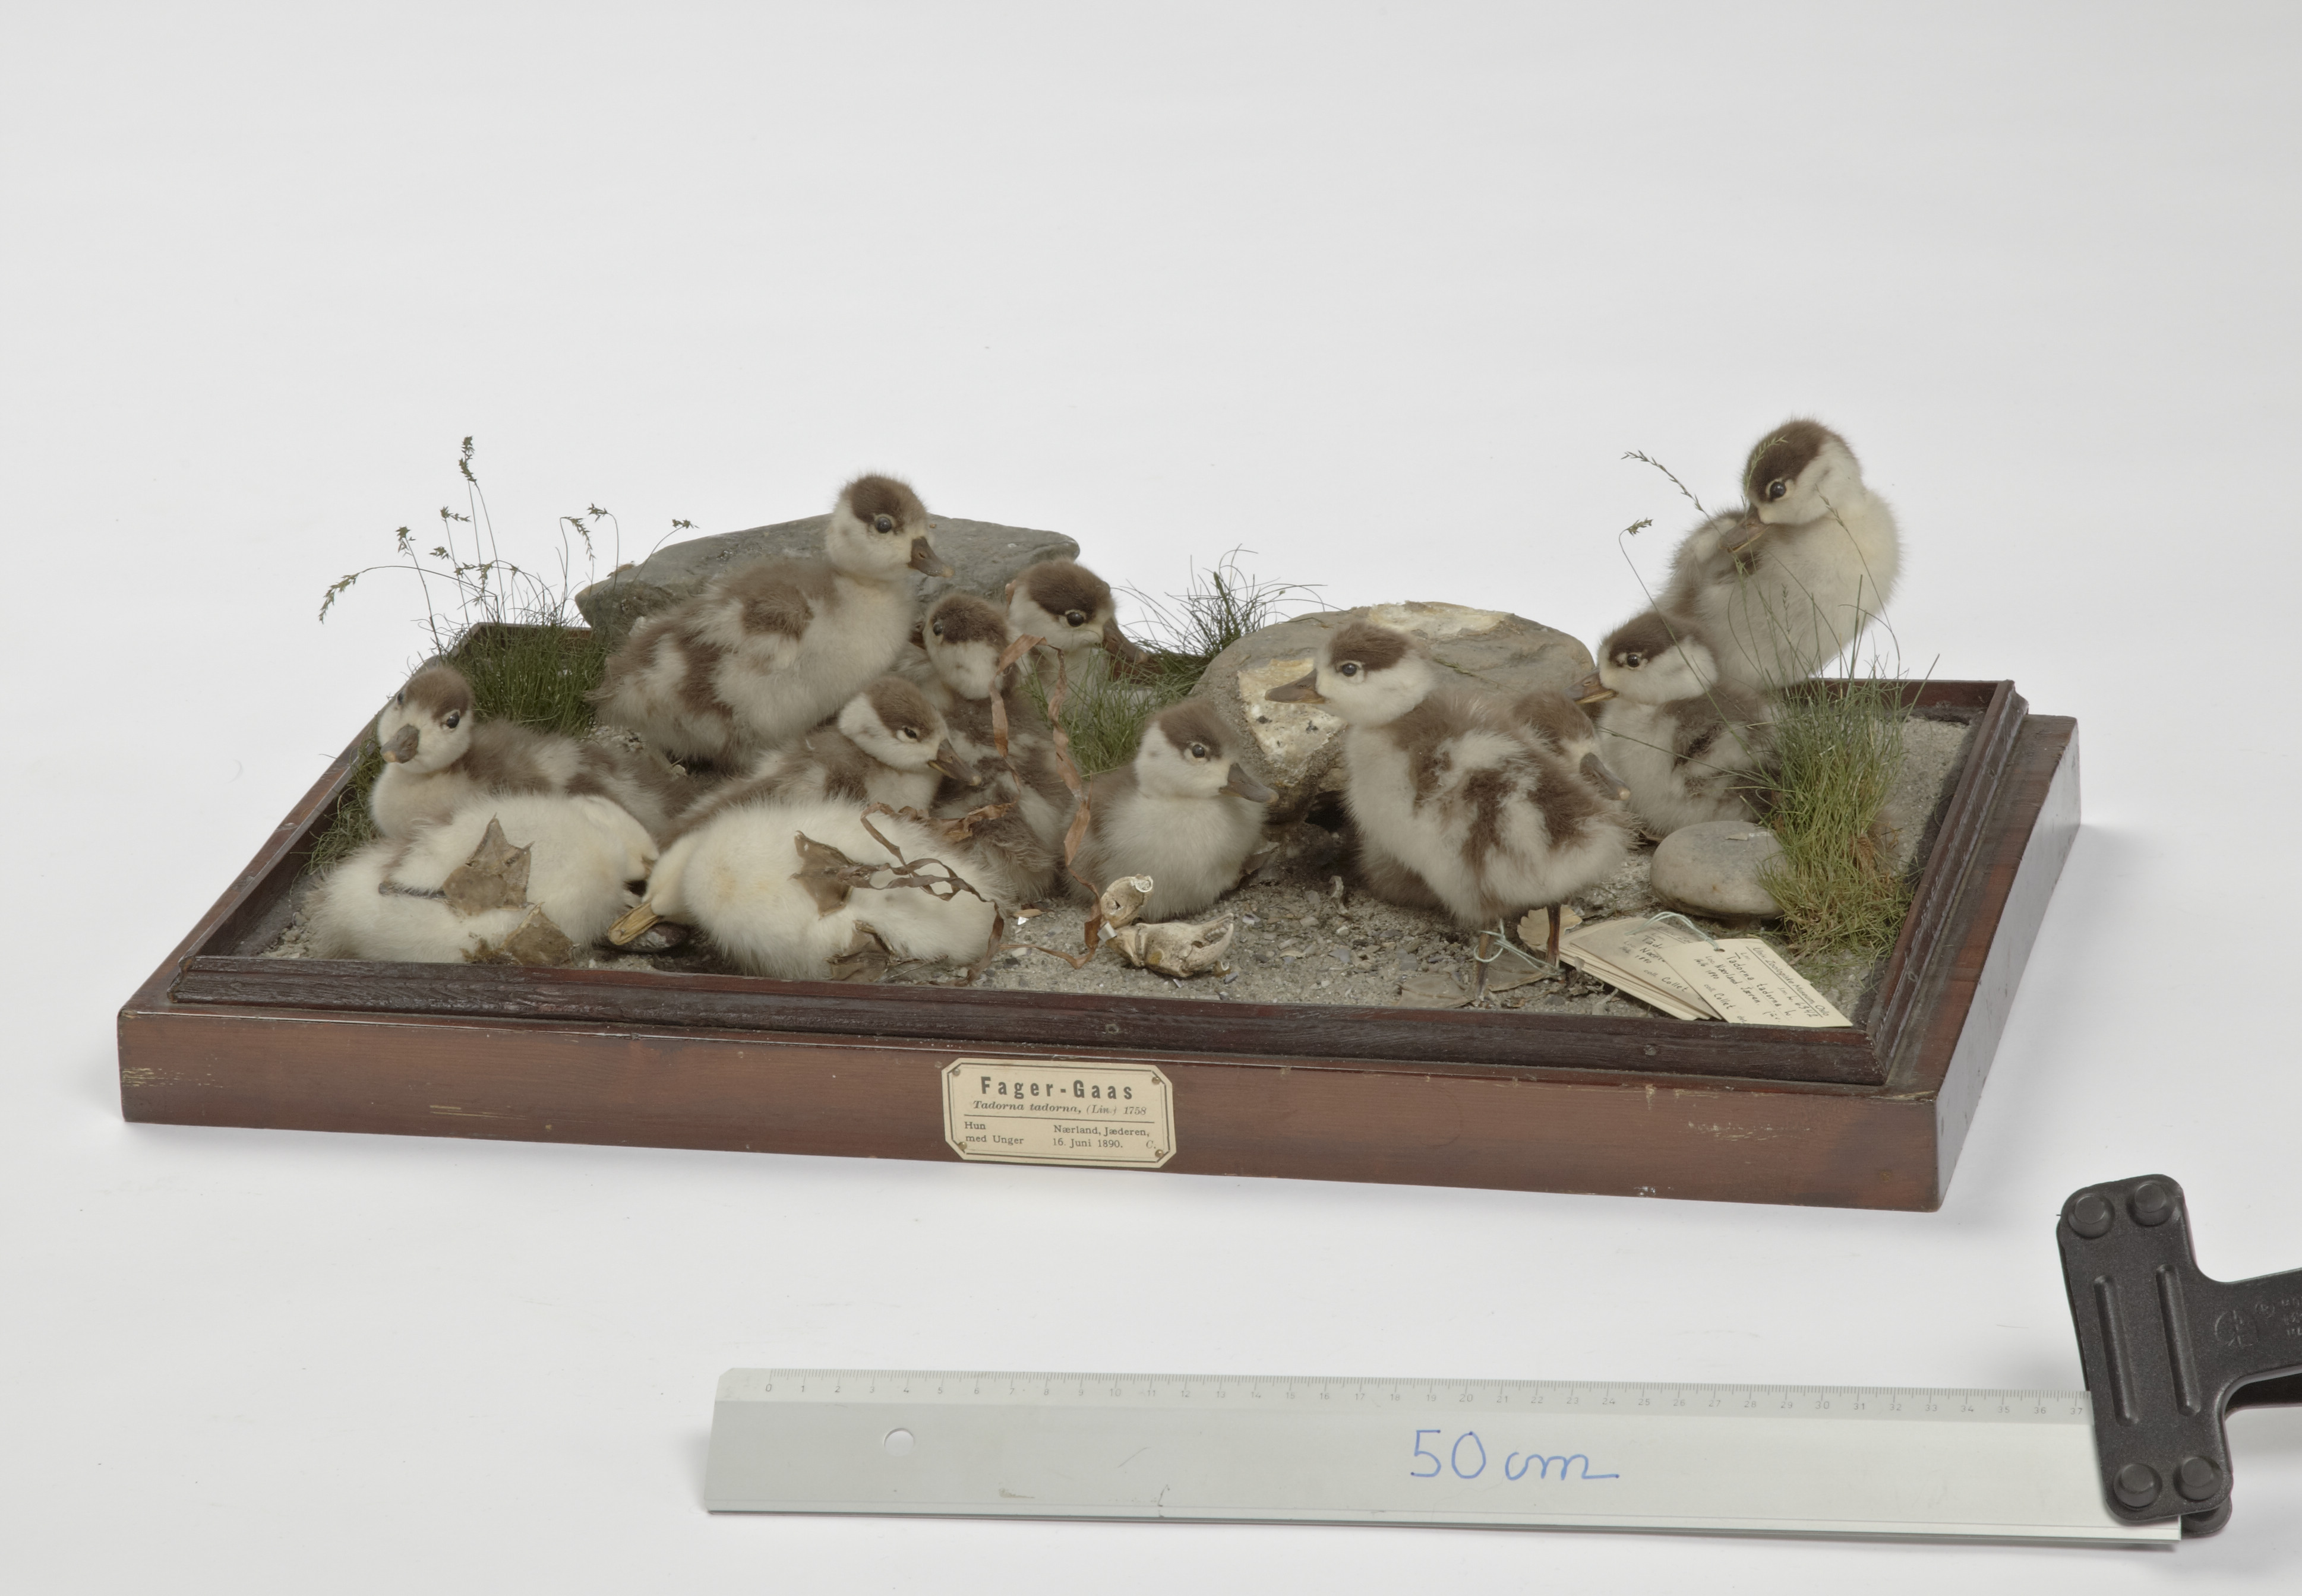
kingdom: Animalia
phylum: Chordata
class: Aves
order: Anseriformes
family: Anatidae
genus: Tadorna
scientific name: Tadorna tadorna
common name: Common shelduck
